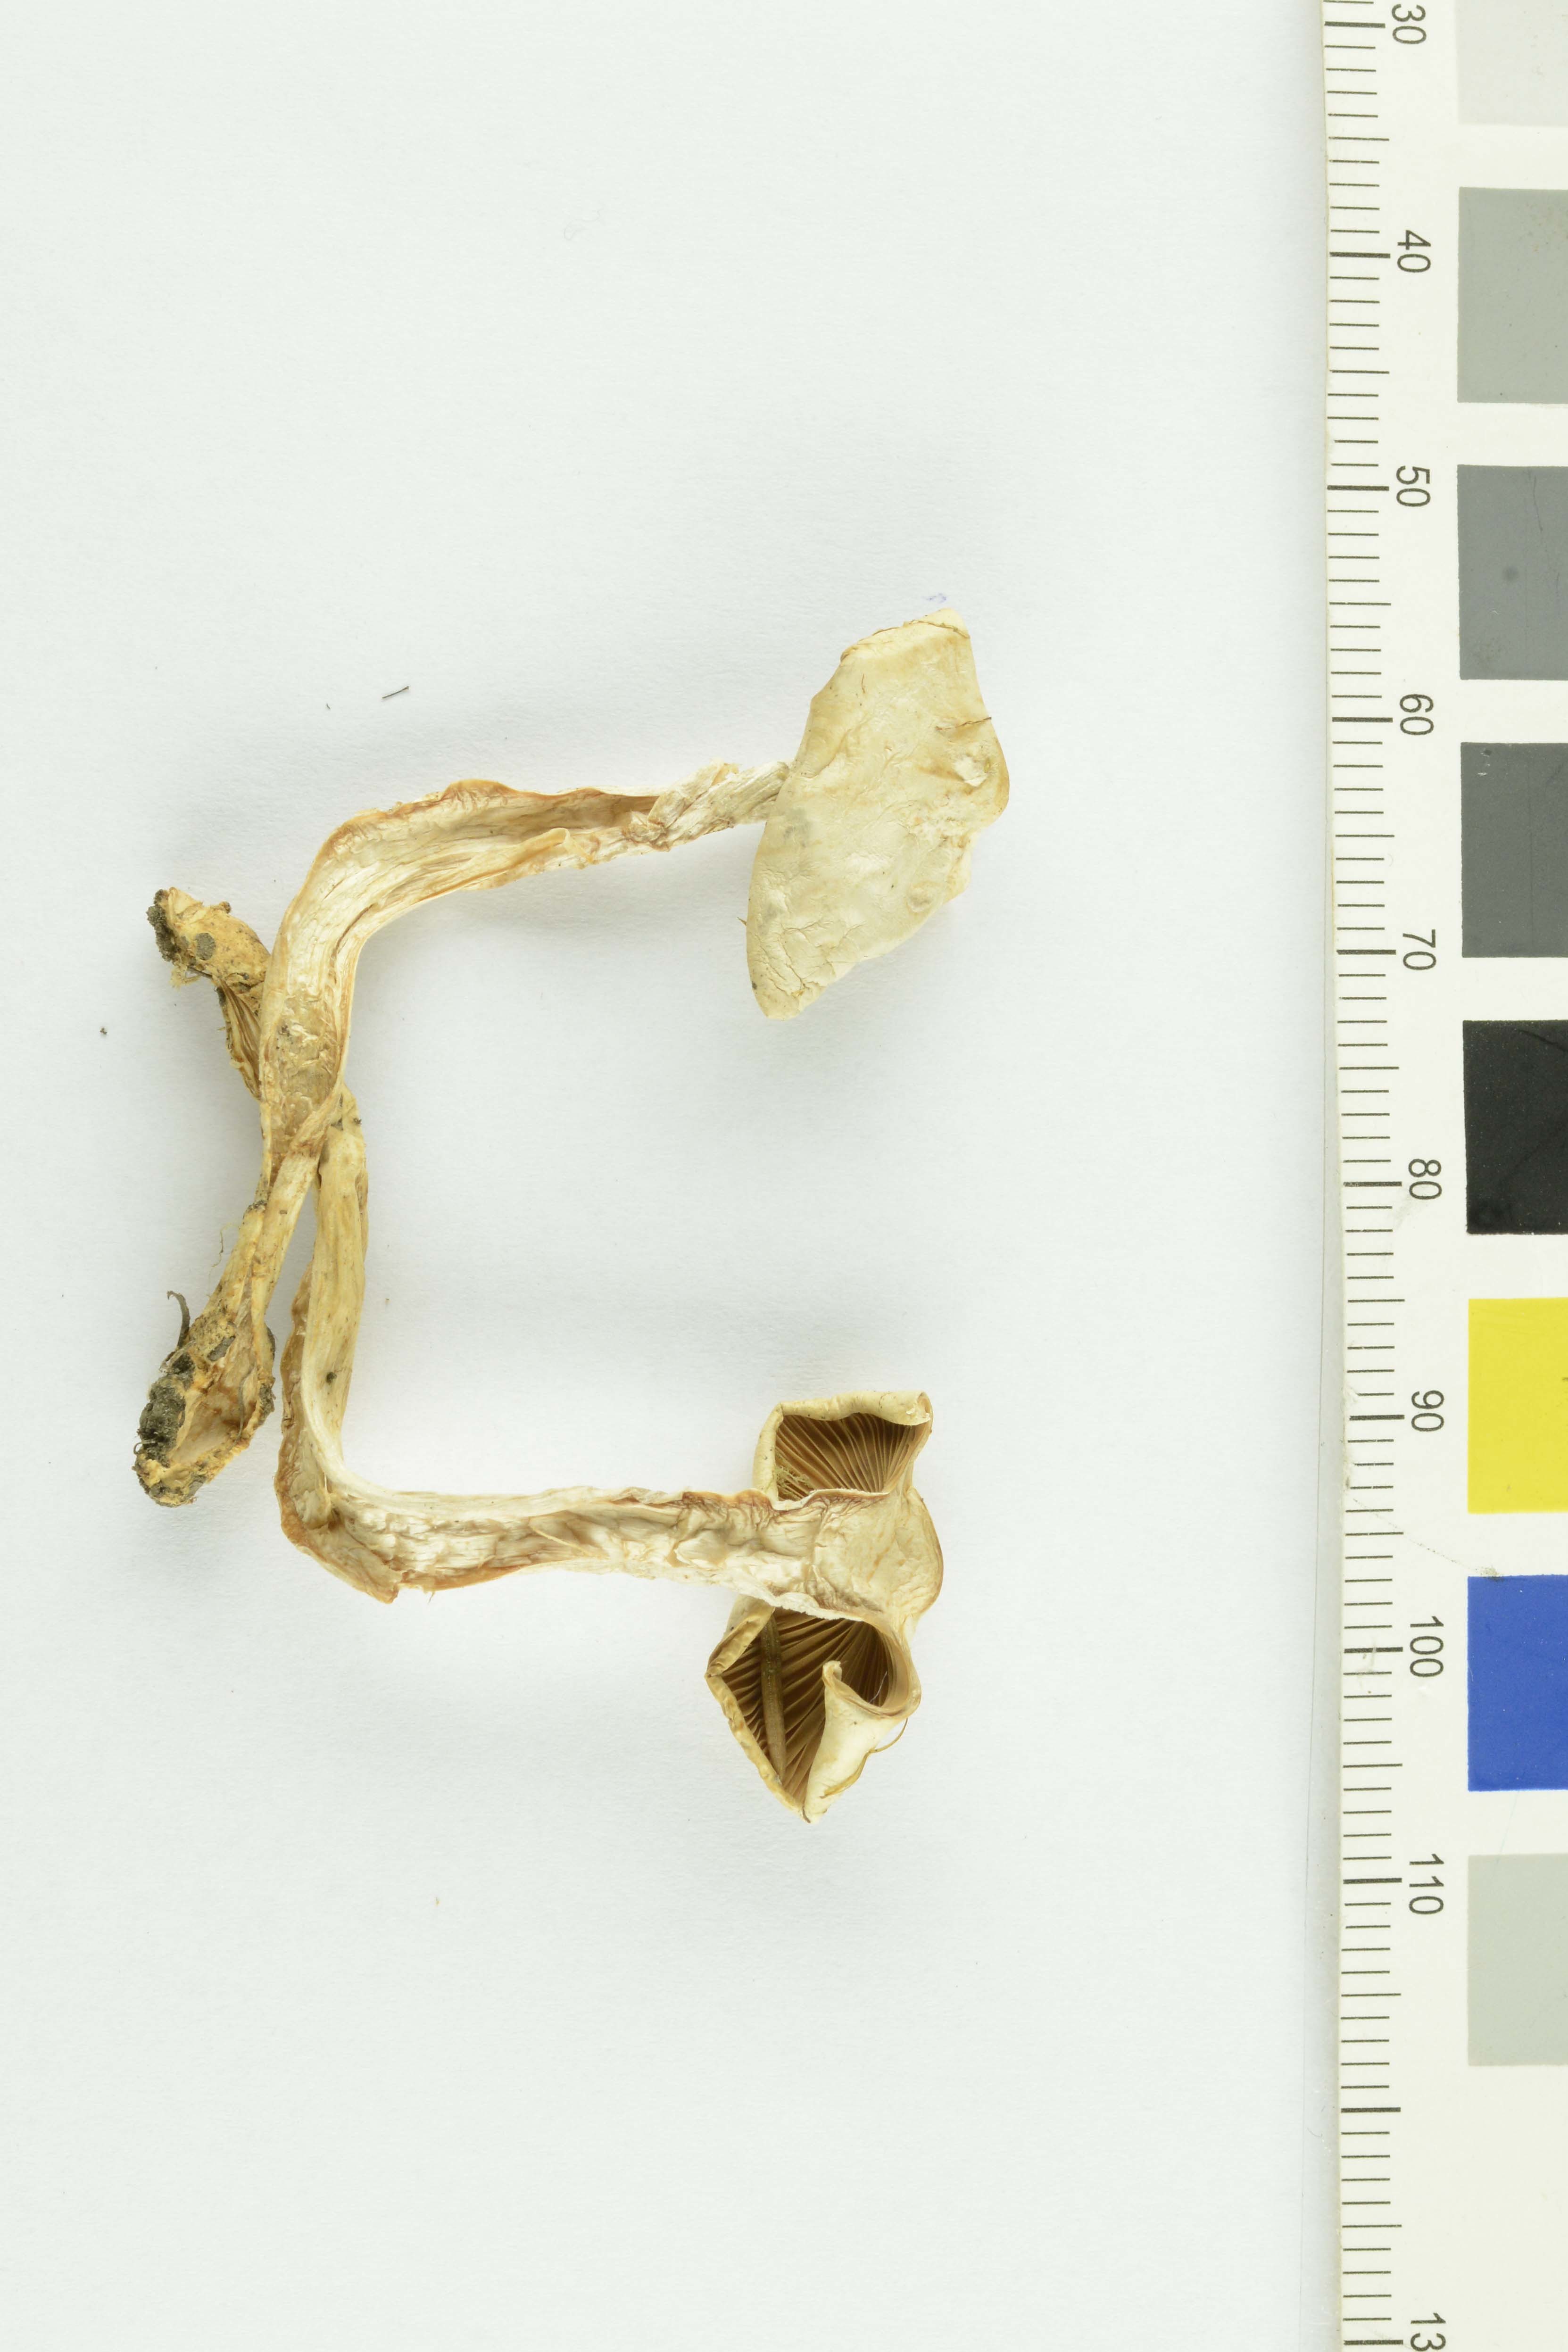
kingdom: Fungi
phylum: Basidiomycota
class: Agaricomycetes
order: Agaricales
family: Tricholomataceae
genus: Ripartites
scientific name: Ripartites tricholoma
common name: Bearded seamine
